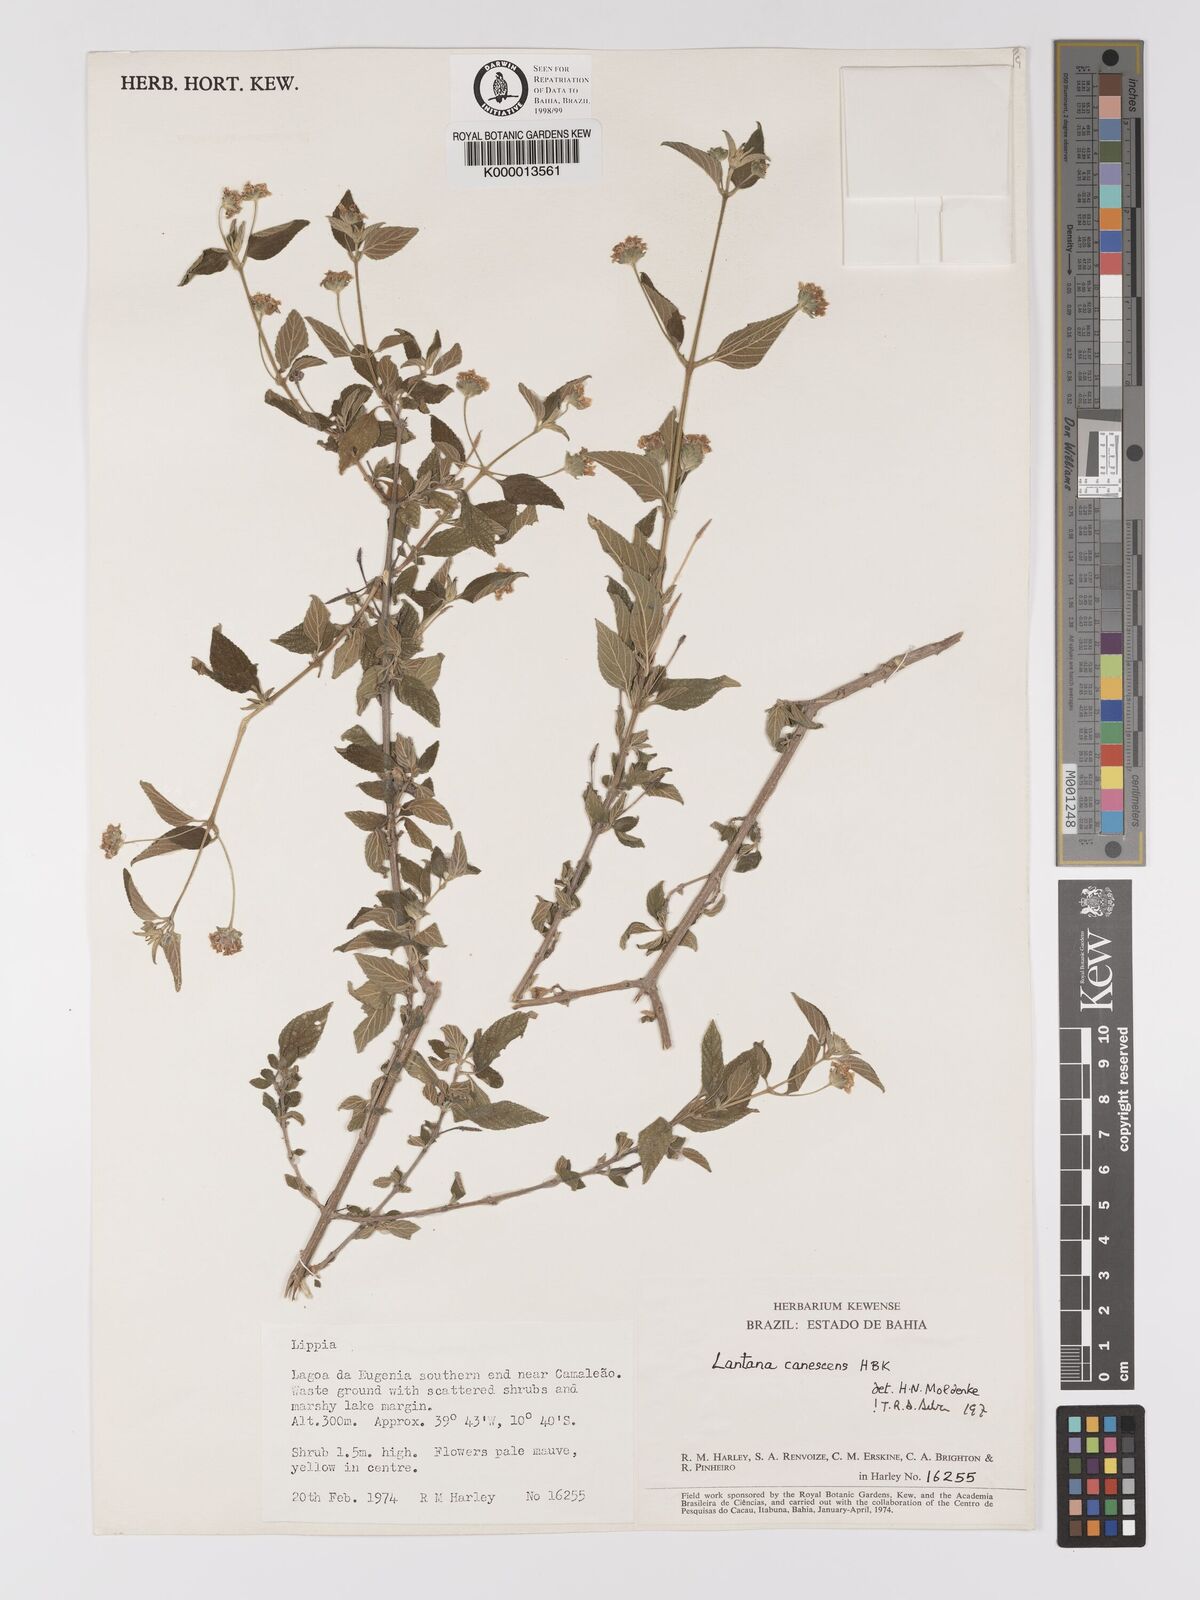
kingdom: Plantae
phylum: Tracheophyta
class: Magnoliopsida
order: Lamiales
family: Verbenaceae
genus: Lantana
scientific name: Lantana canescens
